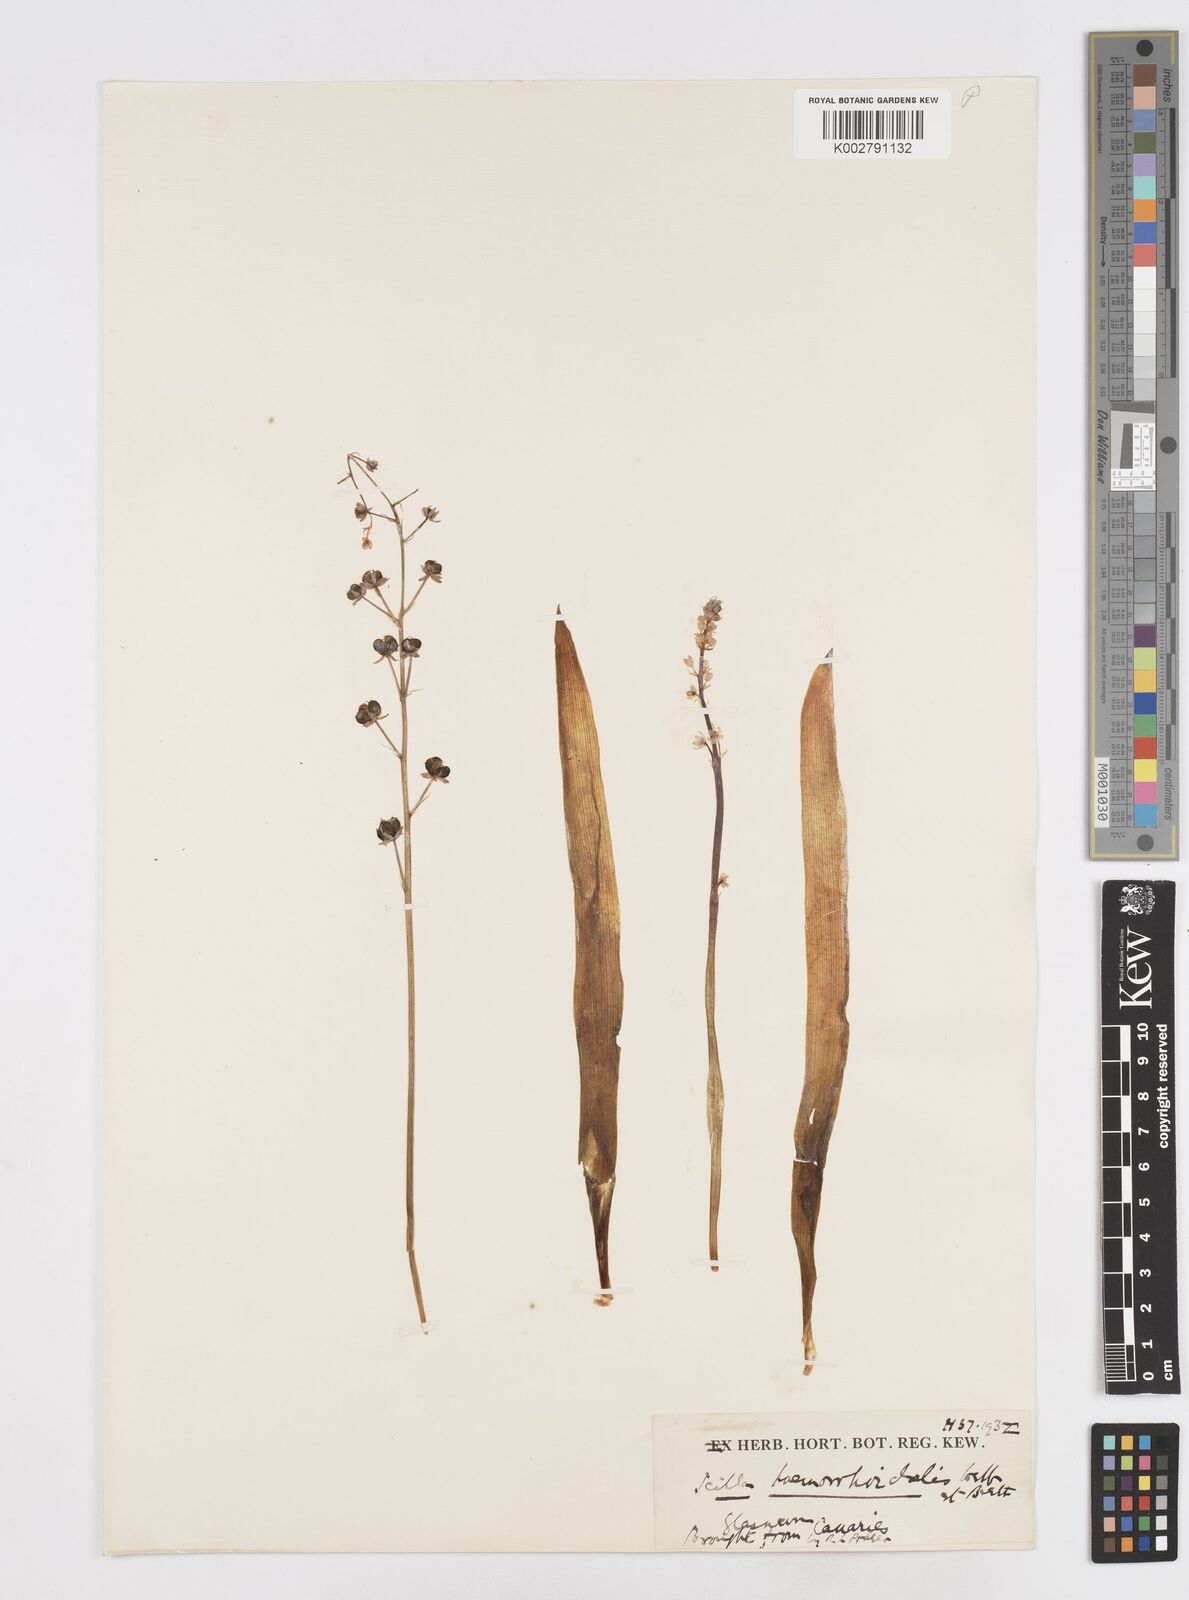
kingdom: Plantae
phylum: Tracheophyta
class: Liliopsida
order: Asparagales
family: Asparagaceae
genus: Scilla
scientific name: Scilla haemorrhoidalis
